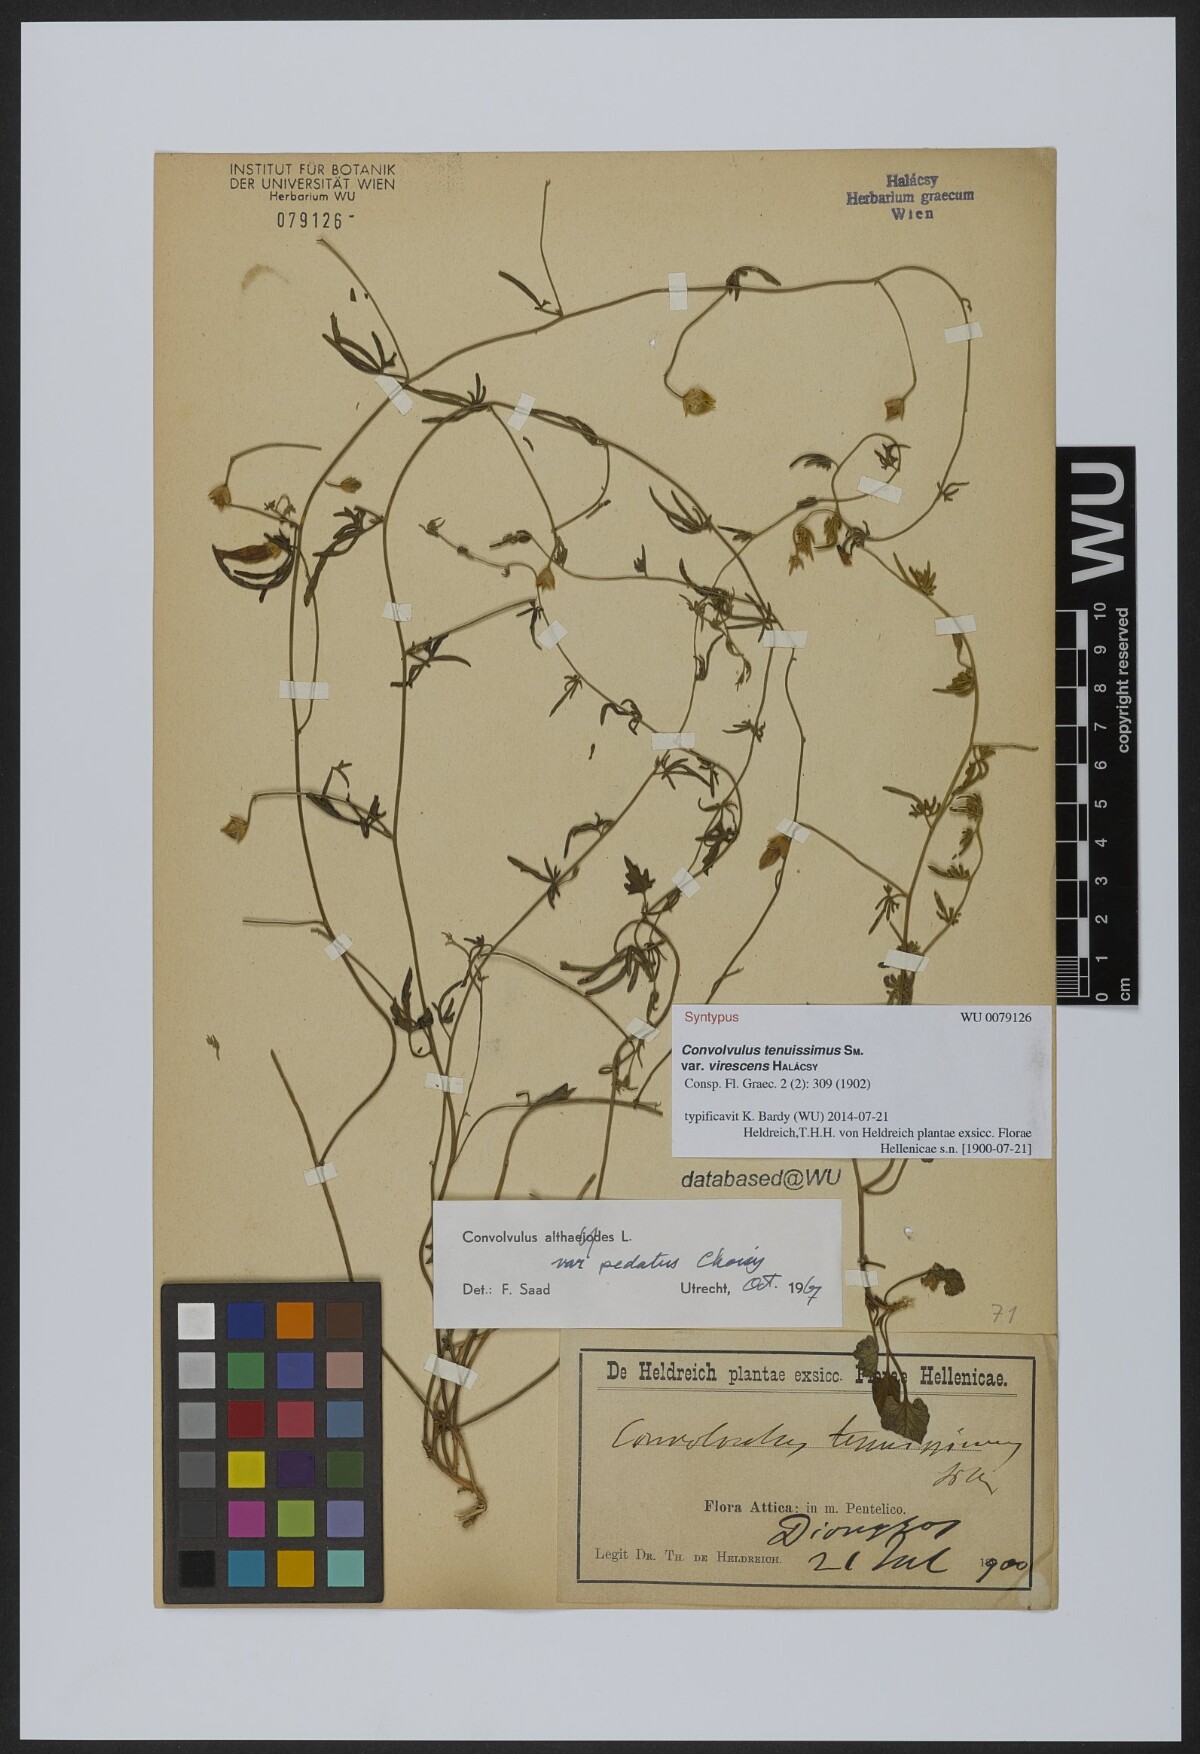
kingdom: Plantae
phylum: Tracheophyta
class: Magnoliopsida
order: Solanales
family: Convolvulaceae
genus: Convolvulus
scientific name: Convolvulus elegantissimus
